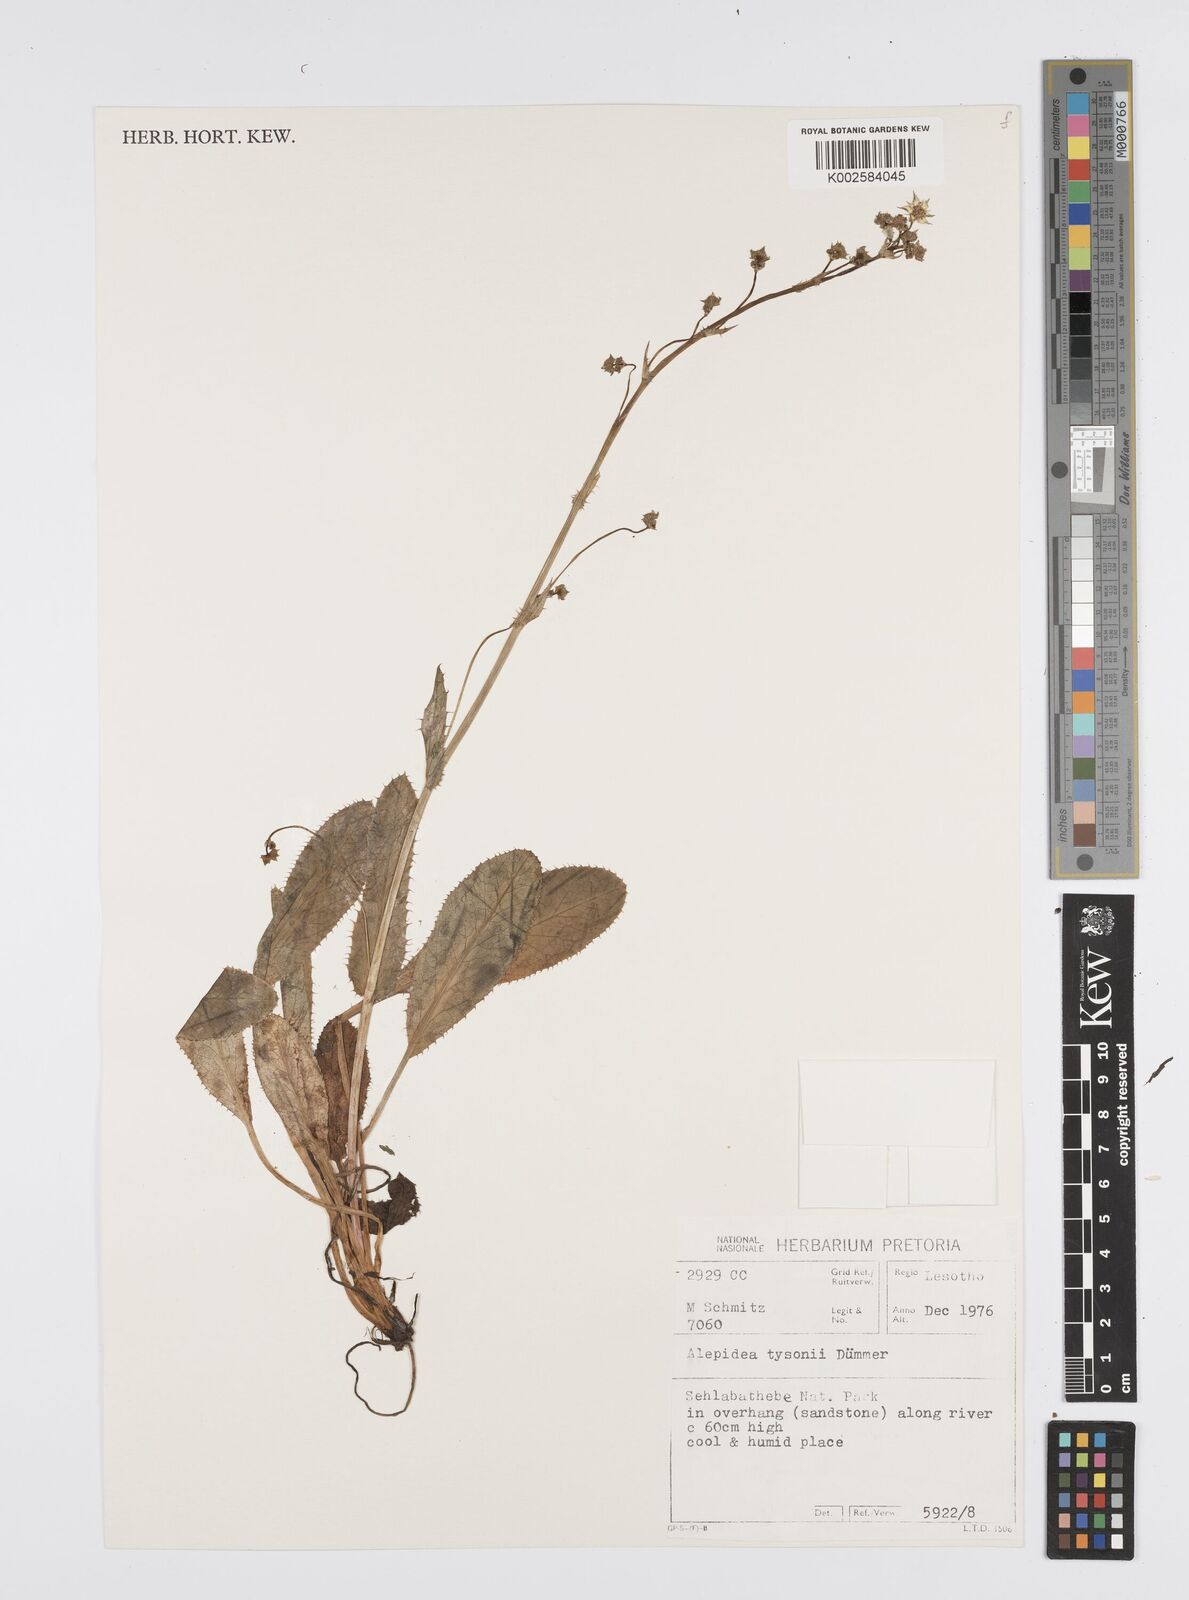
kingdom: Plantae
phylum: Tracheophyta
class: Magnoliopsida
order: Apiales
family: Apiaceae
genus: Alepidea
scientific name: Alepidea woodii
